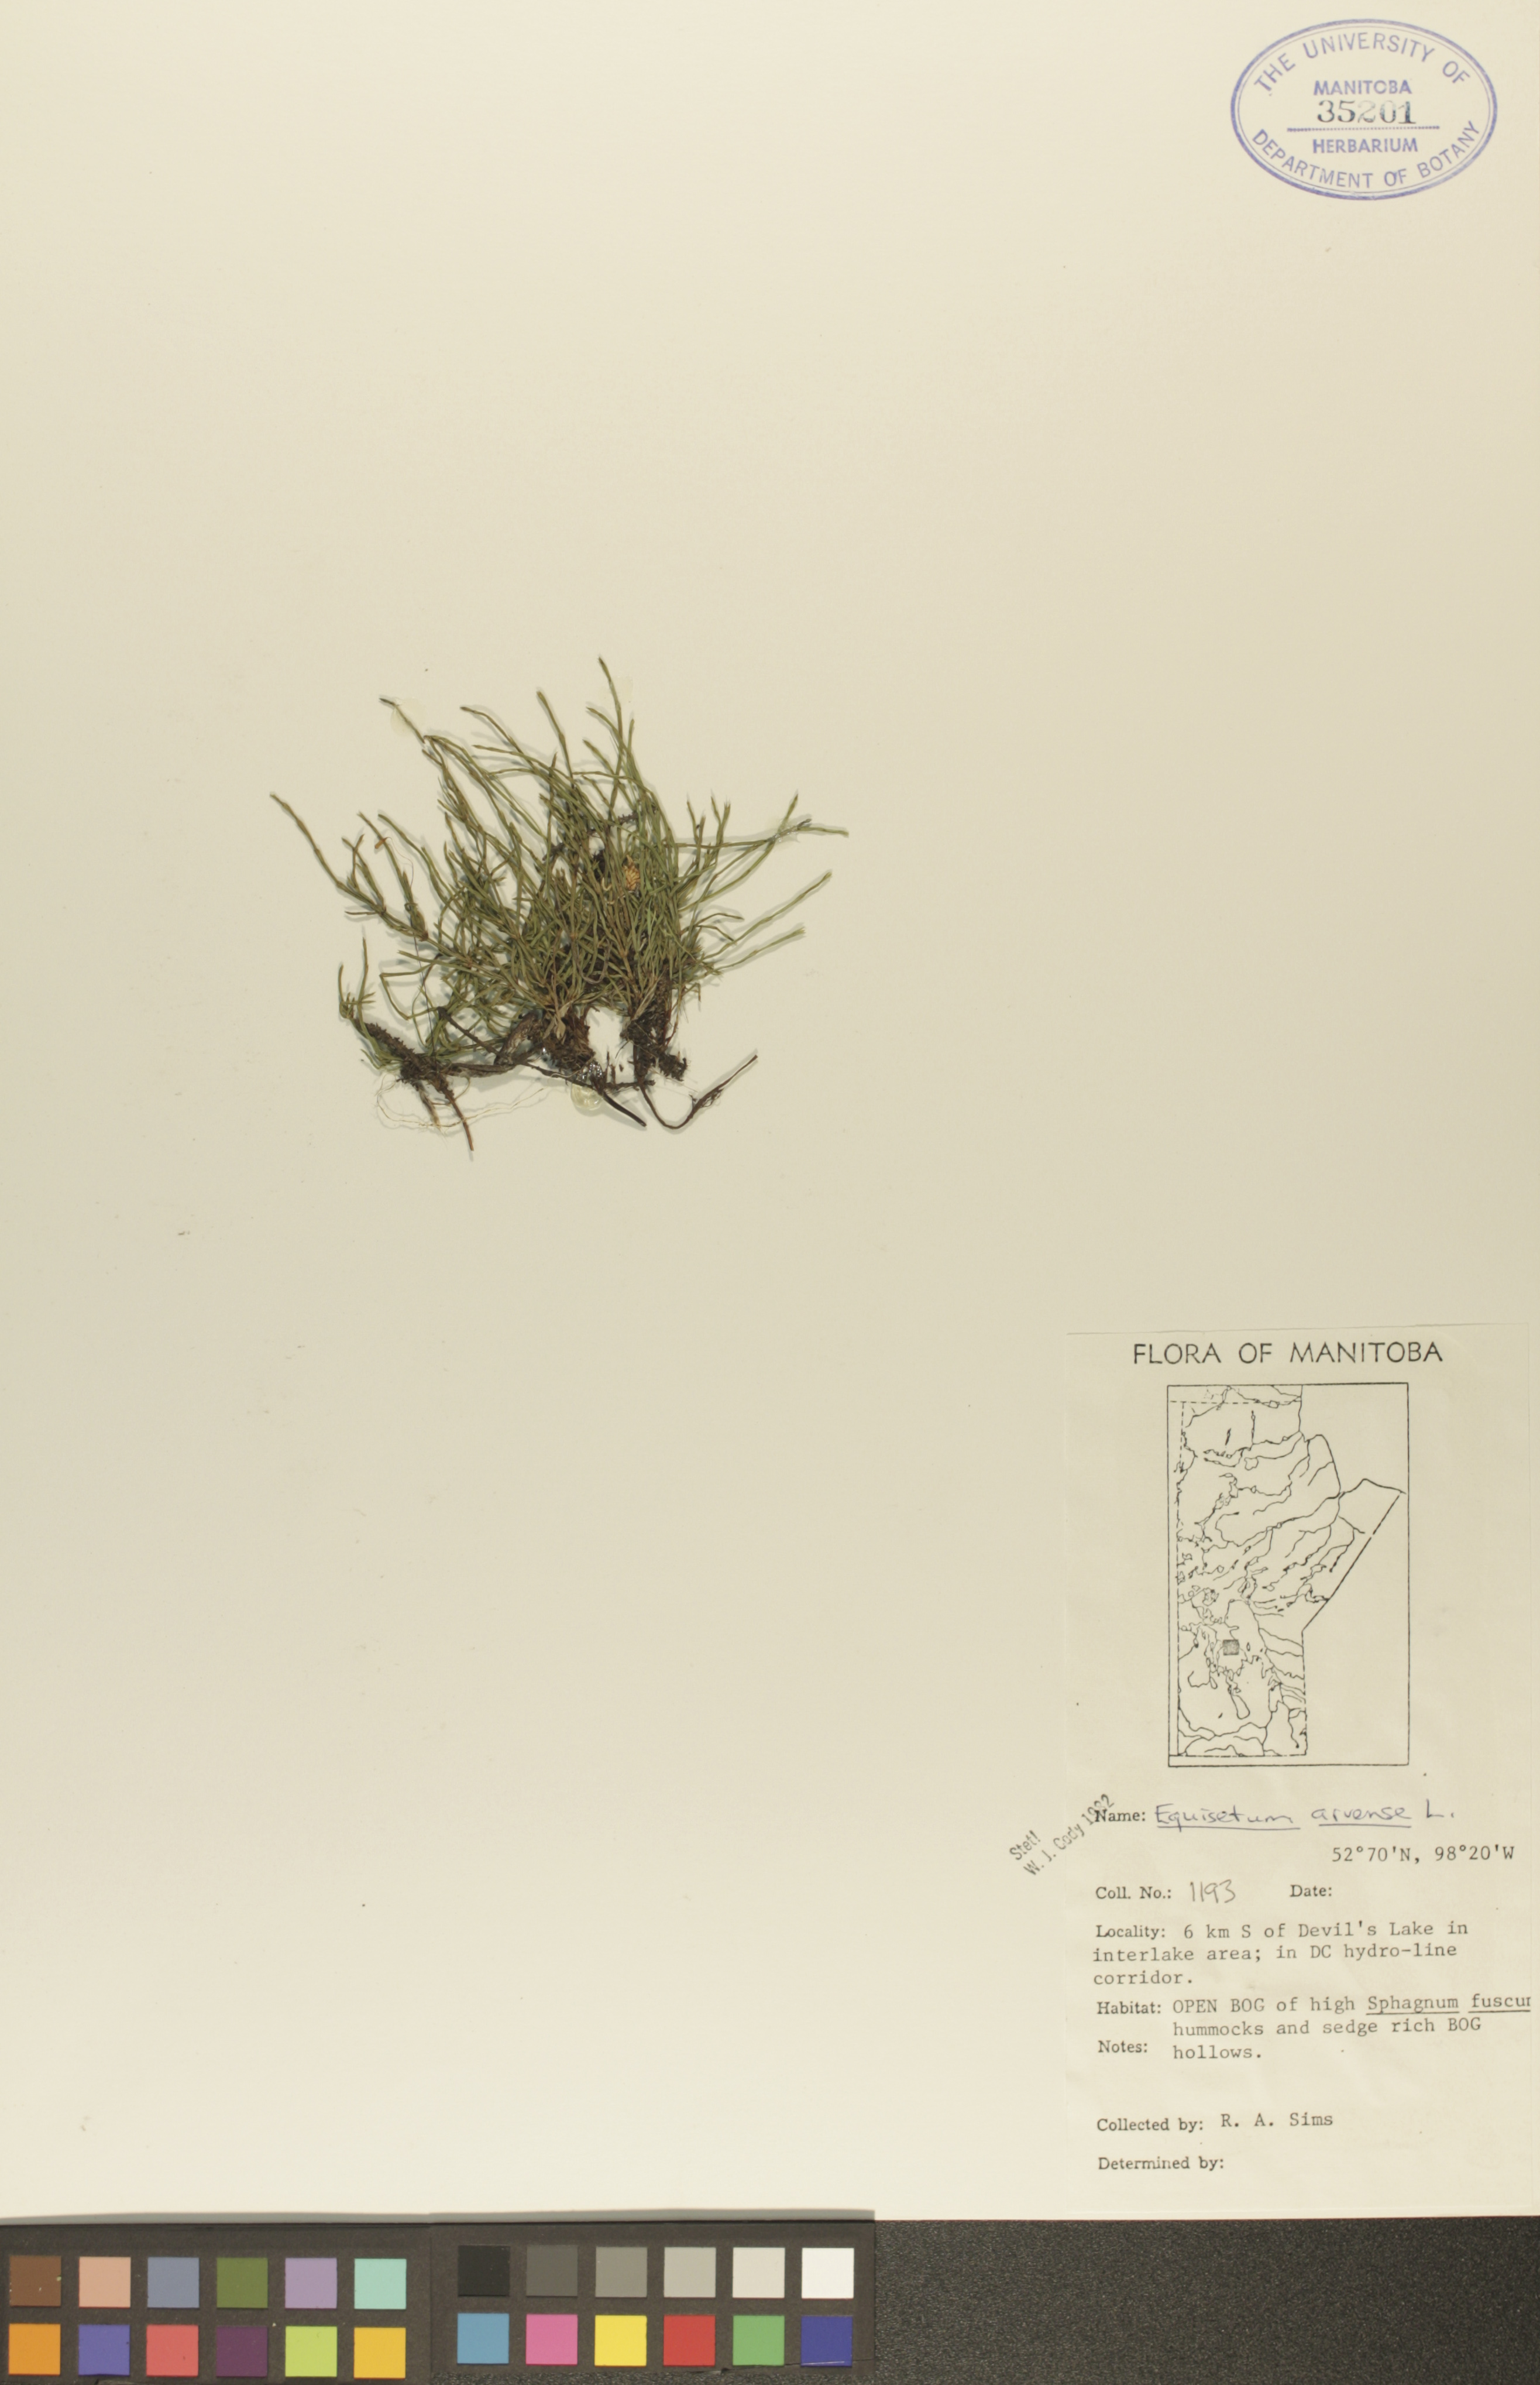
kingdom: Plantae
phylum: Tracheophyta
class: Polypodiopsida
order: Equisetales
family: Equisetaceae
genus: Equisetum
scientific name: Equisetum arvense
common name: Field horsetail
